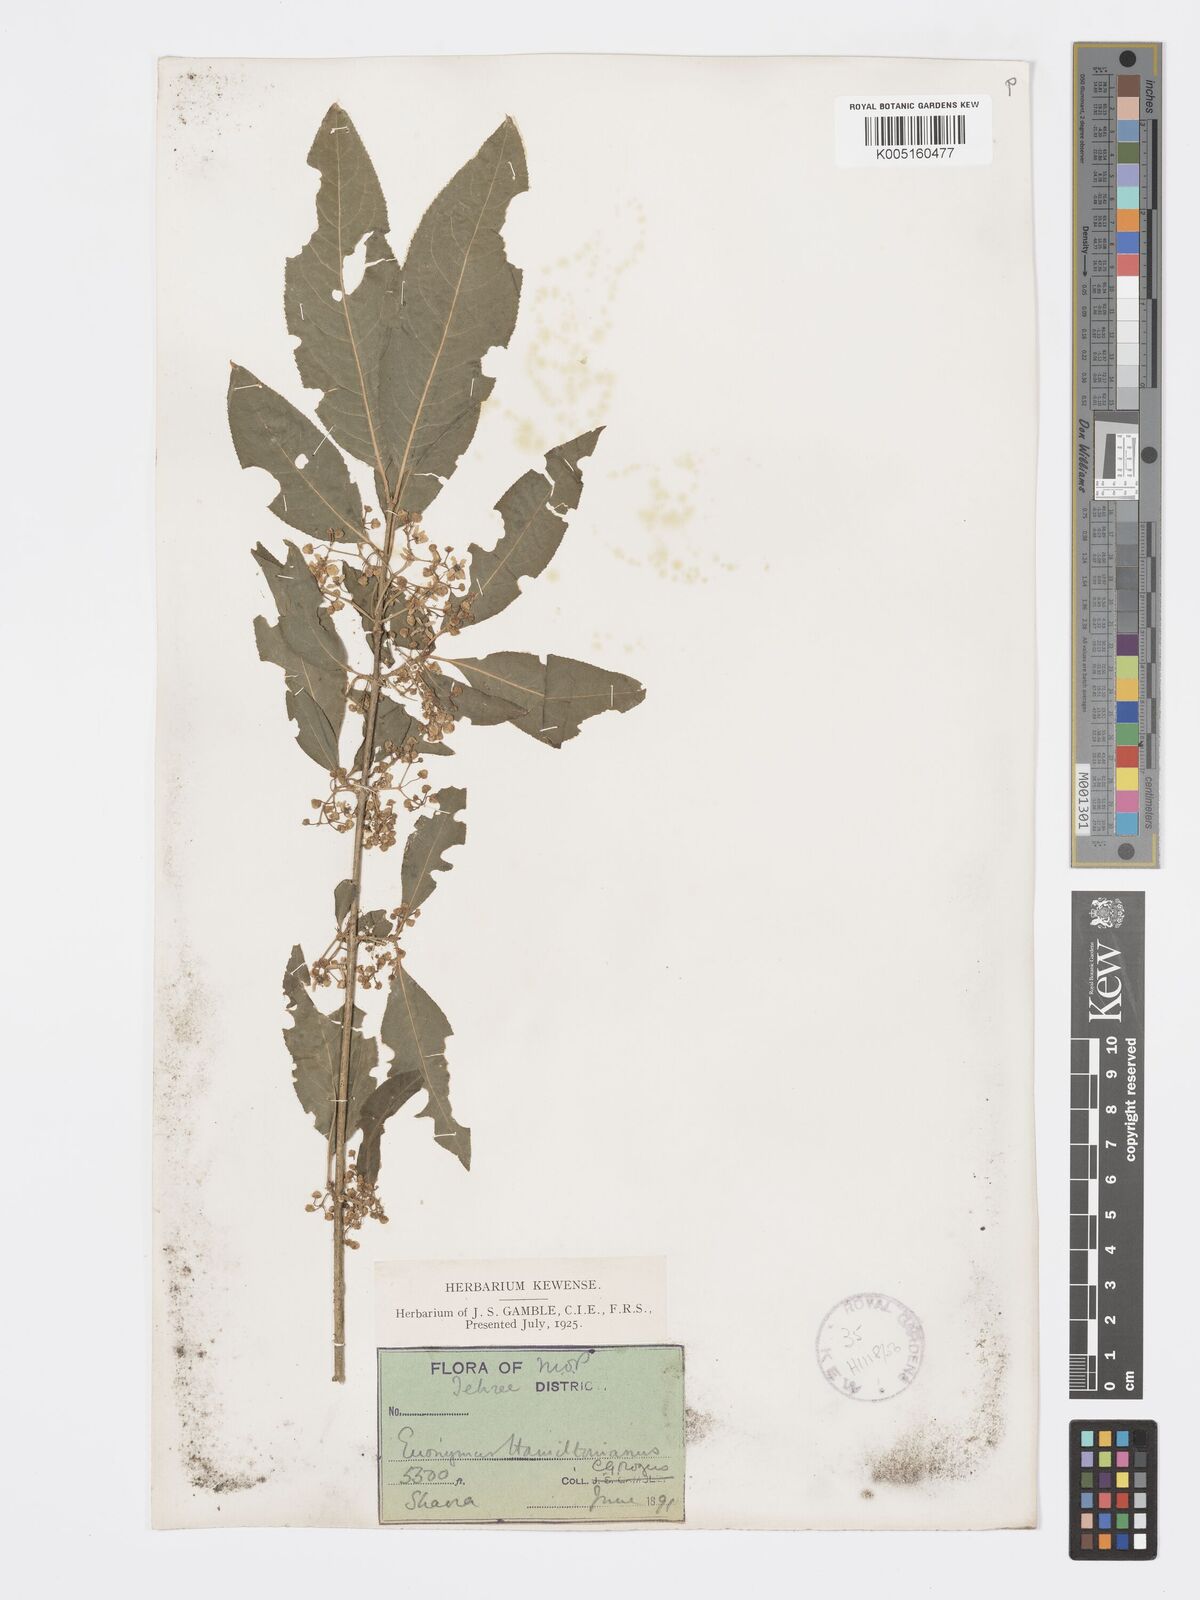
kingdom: Plantae
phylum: Tracheophyta
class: Magnoliopsida
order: Celastrales
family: Celastraceae
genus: Euonymus
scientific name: Euonymus
